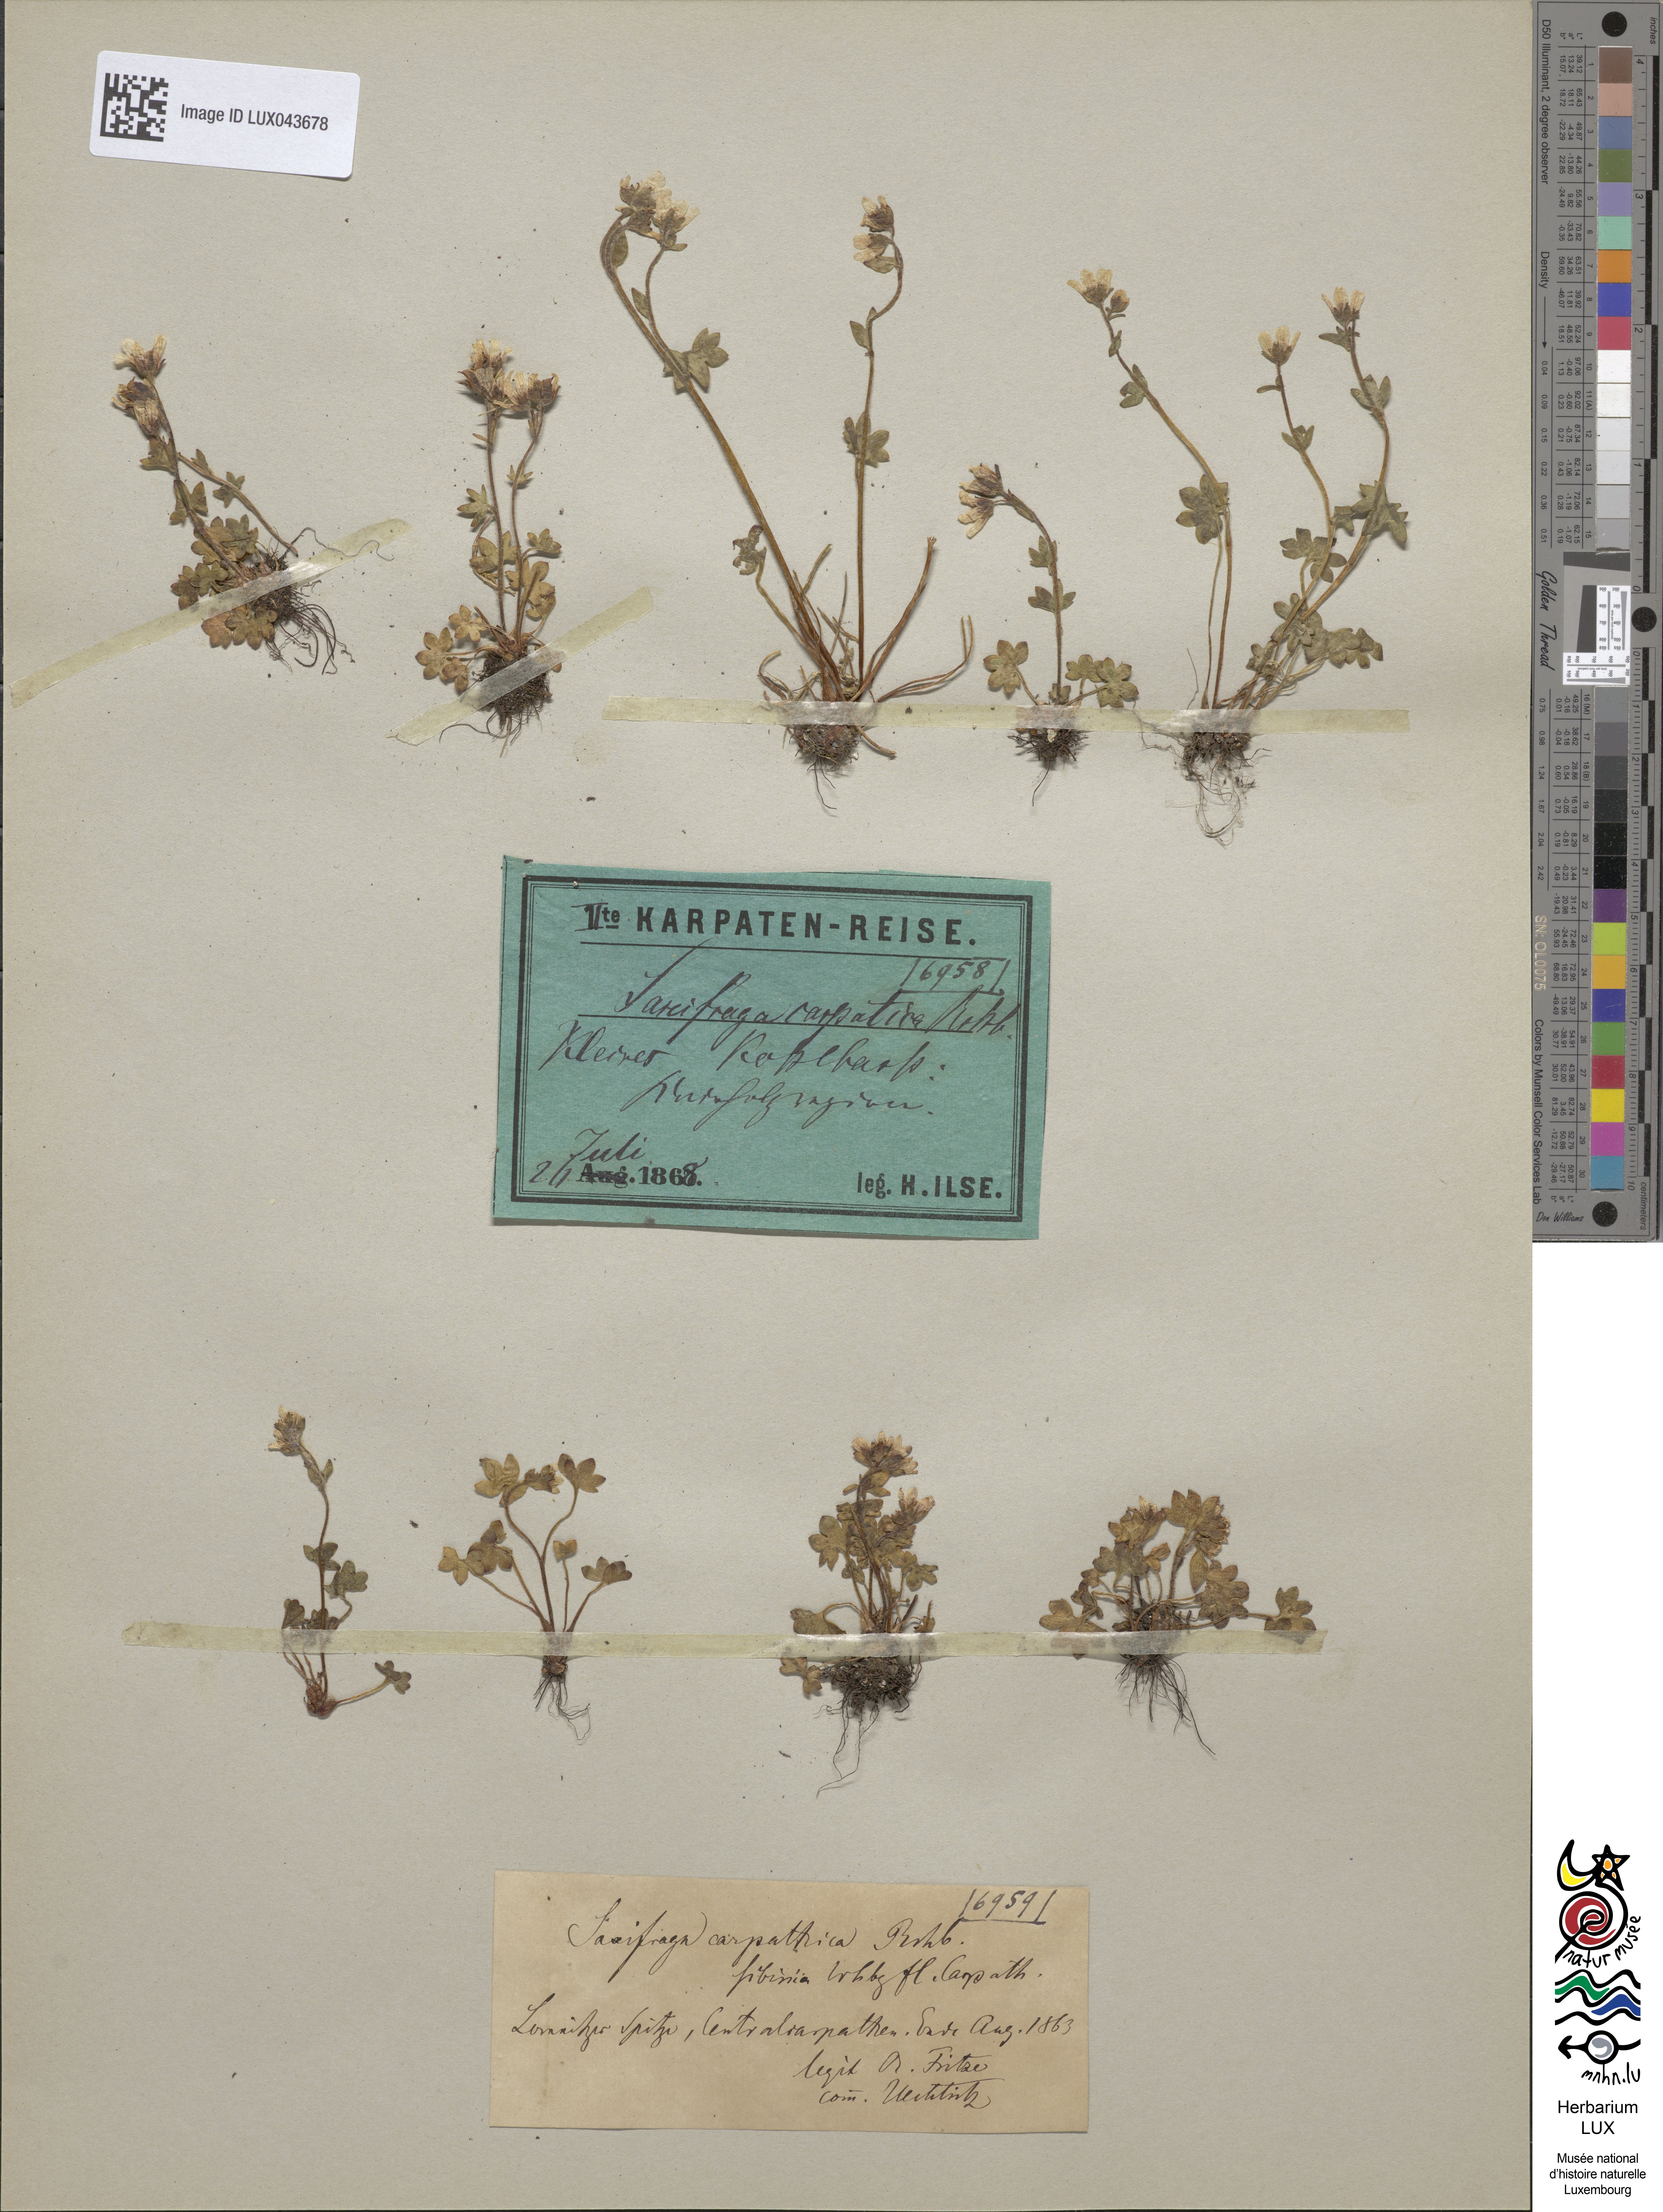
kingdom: Plantae
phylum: Tracheophyta
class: Magnoliopsida
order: Saxifragales
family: Saxifragaceae
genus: Saxifraga
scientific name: Saxifraga carpatica
